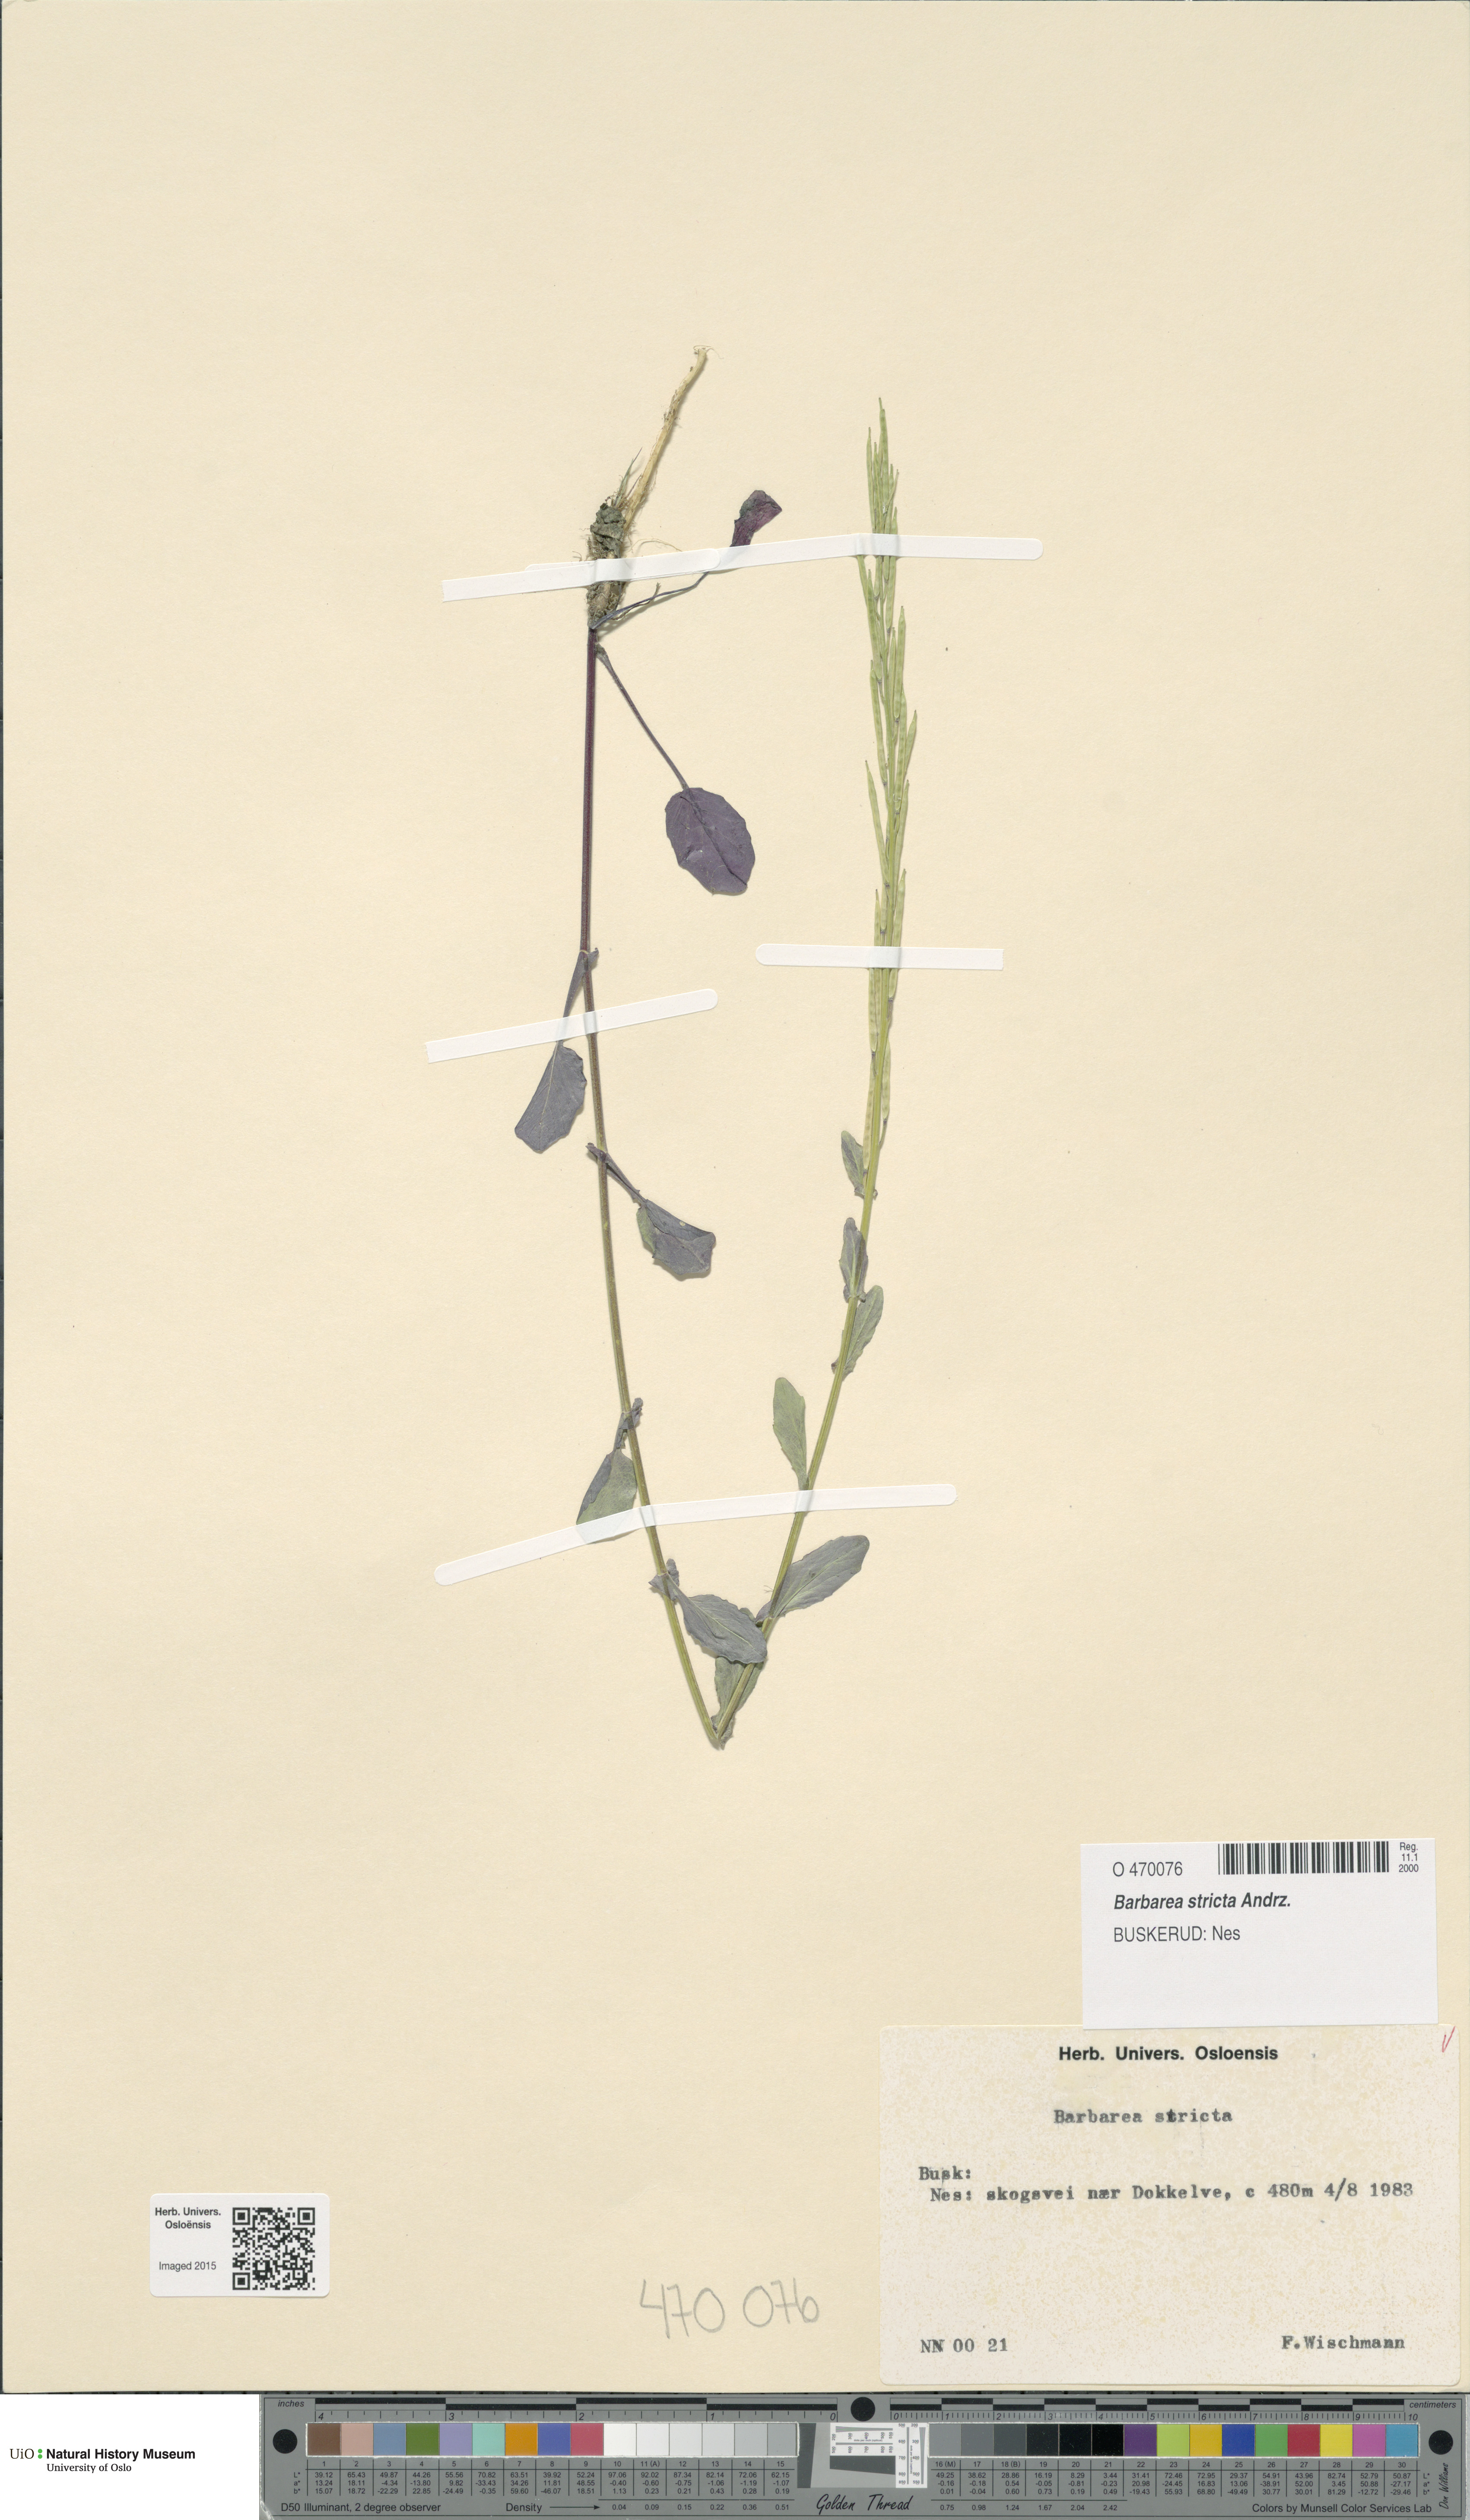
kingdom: Plantae
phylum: Tracheophyta
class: Magnoliopsida
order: Brassicales
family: Brassicaceae
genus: Barbarea
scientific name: Barbarea stricta
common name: Small-flowered winter-cress
